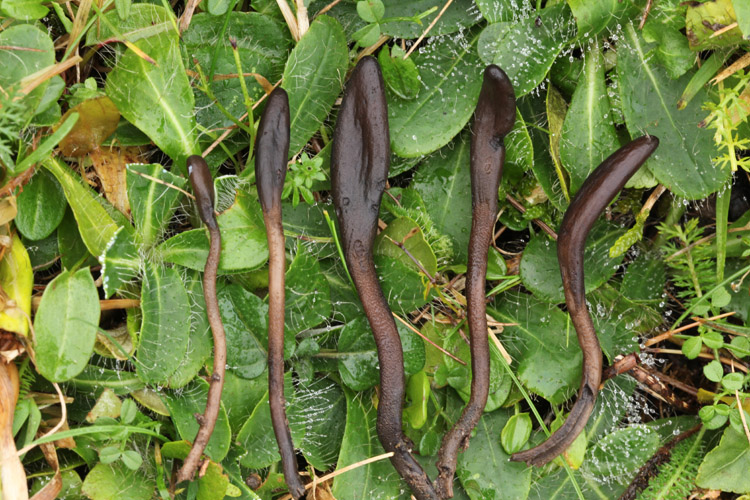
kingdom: Fungi
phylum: Ascomycota
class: Geoglossomycetes
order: Geoglossales
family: Geoglossaceae
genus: Geoglossum
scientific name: Geoglossum fallax
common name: småskællet jordtunge
